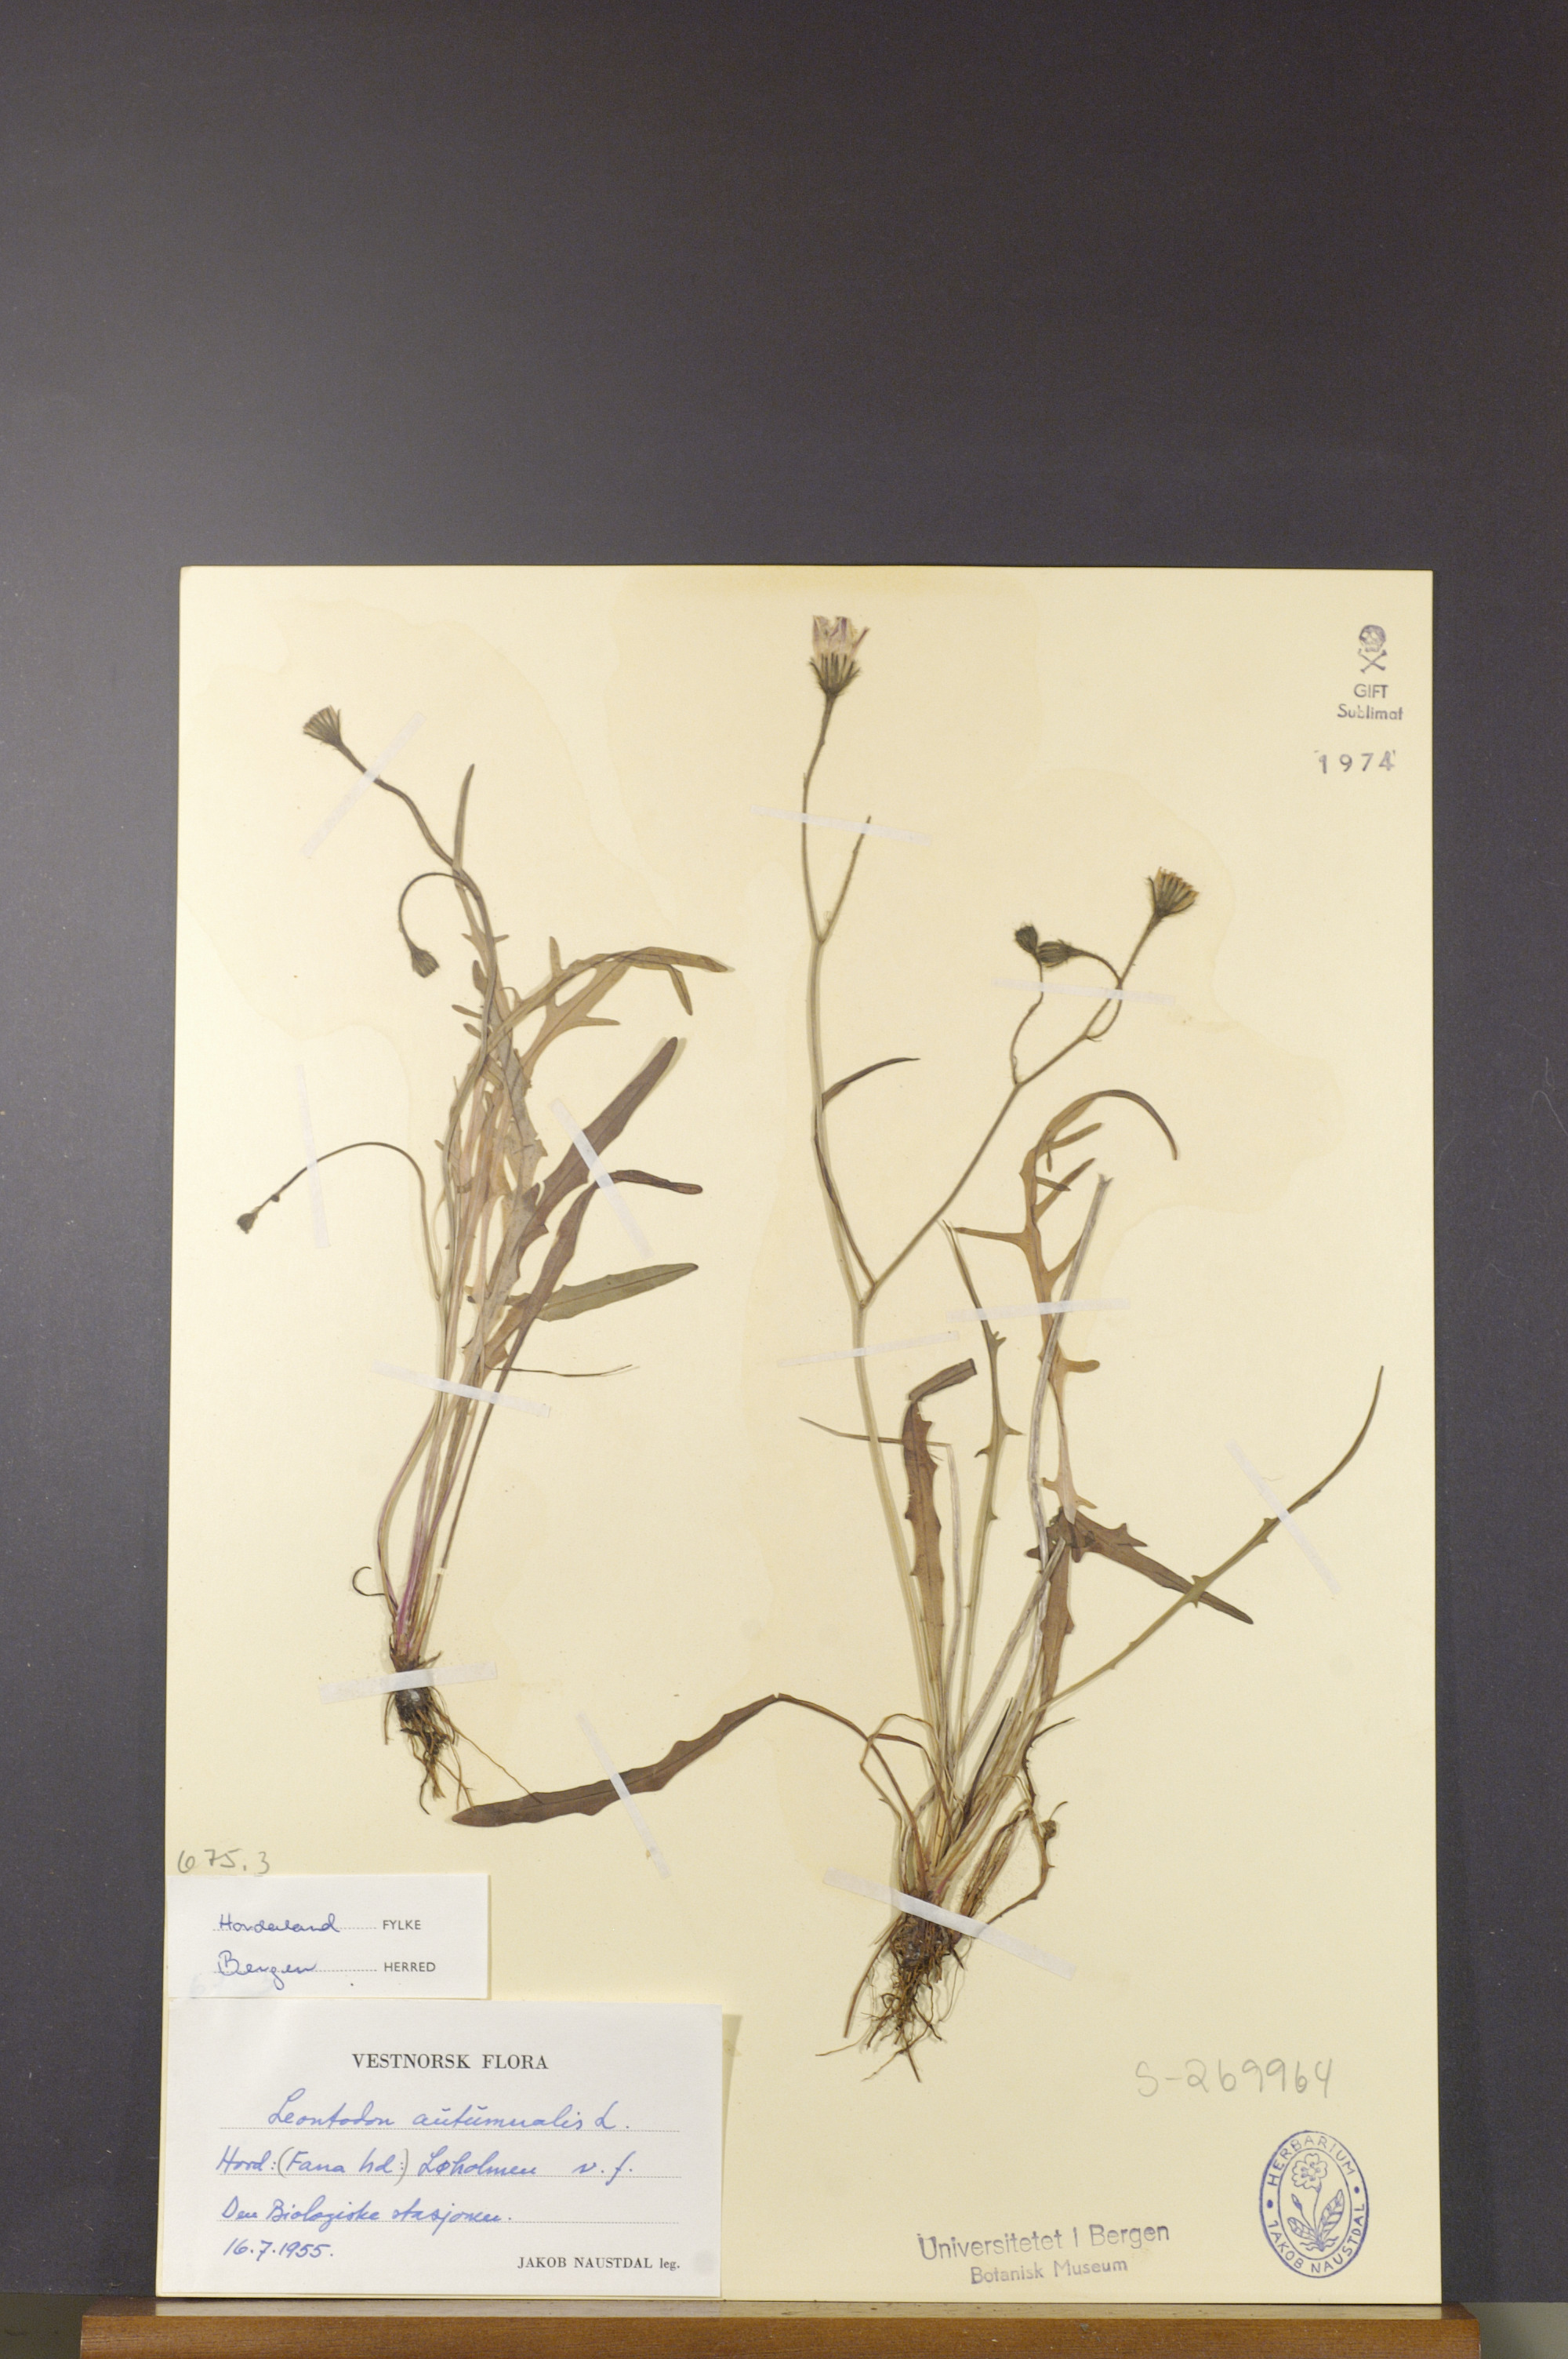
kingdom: Plantae
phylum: Tracheophyta
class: Magnoliopsida
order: Asterales
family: Asteraceae
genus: Scorzoneroides
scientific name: Scorzoneroides autumnalis
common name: Autumn hawkbit
